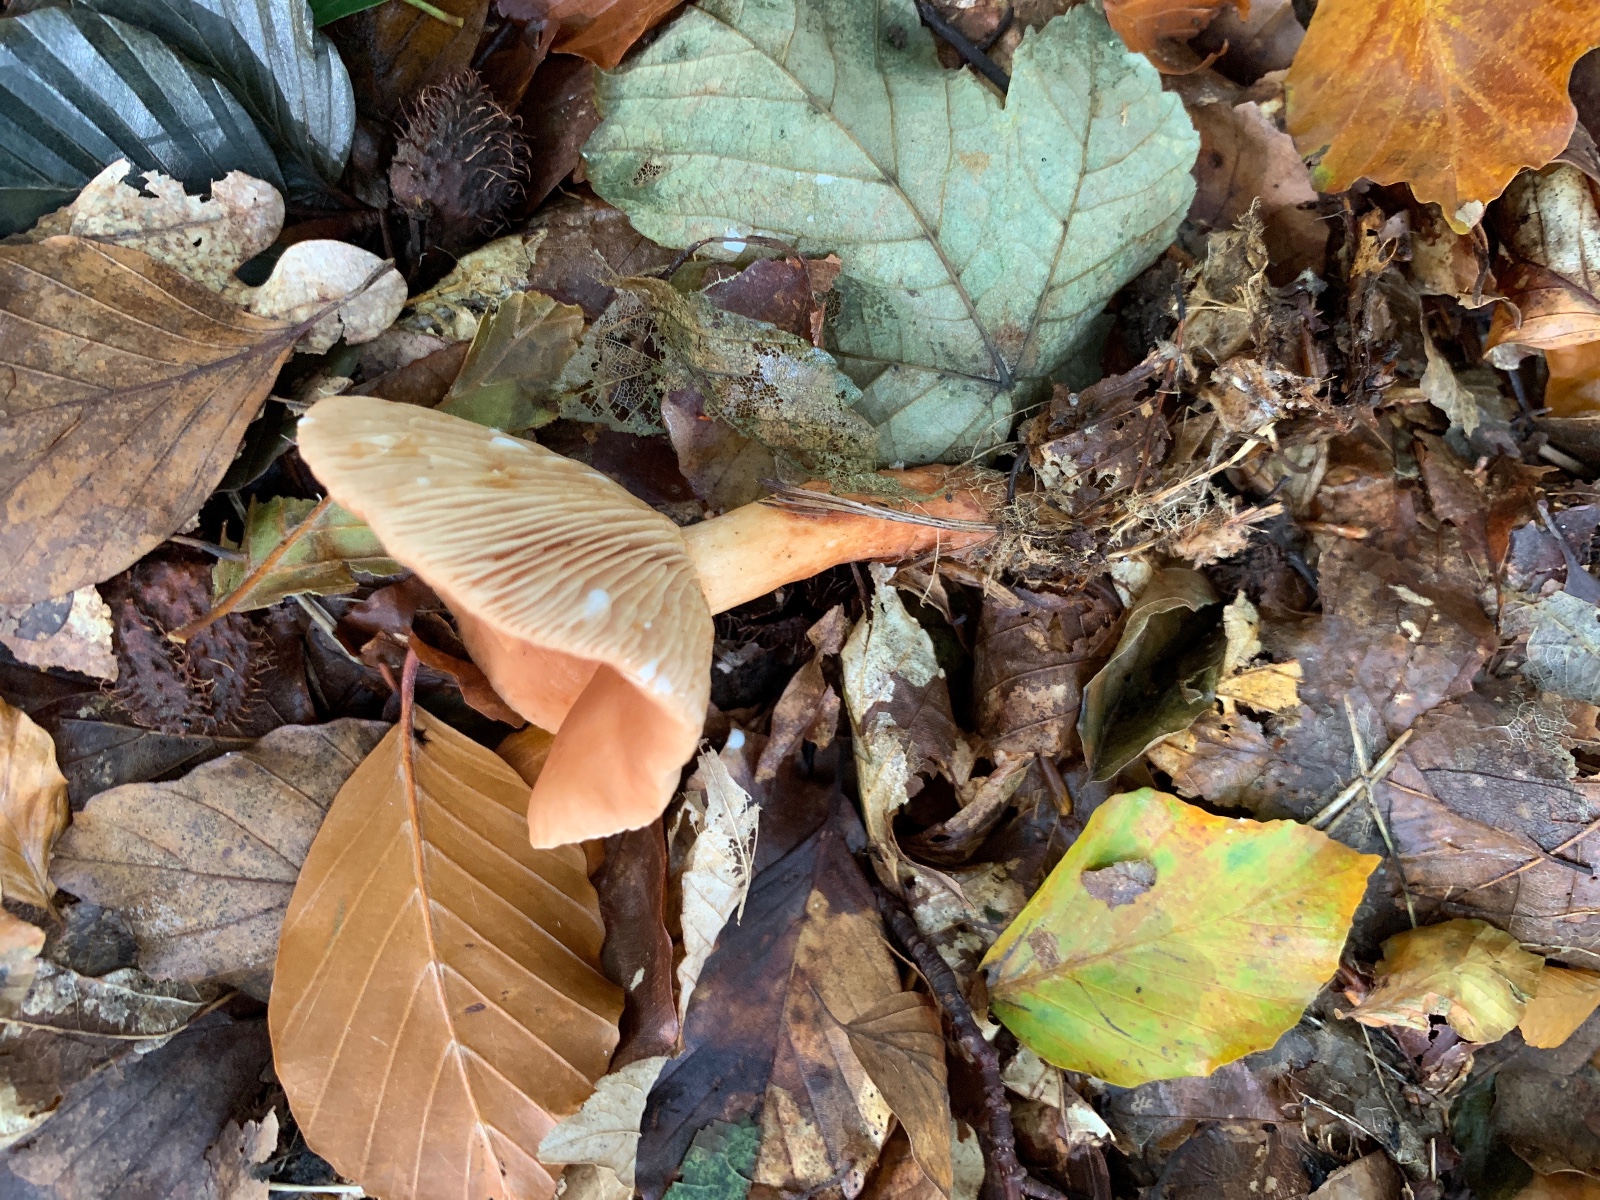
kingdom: Fungi
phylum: Basidiomycota
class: Agaricomycetes
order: Russulales
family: Russulaceae
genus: Lactarius
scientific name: Lactarius subdulcis
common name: sødlig mælkehat
